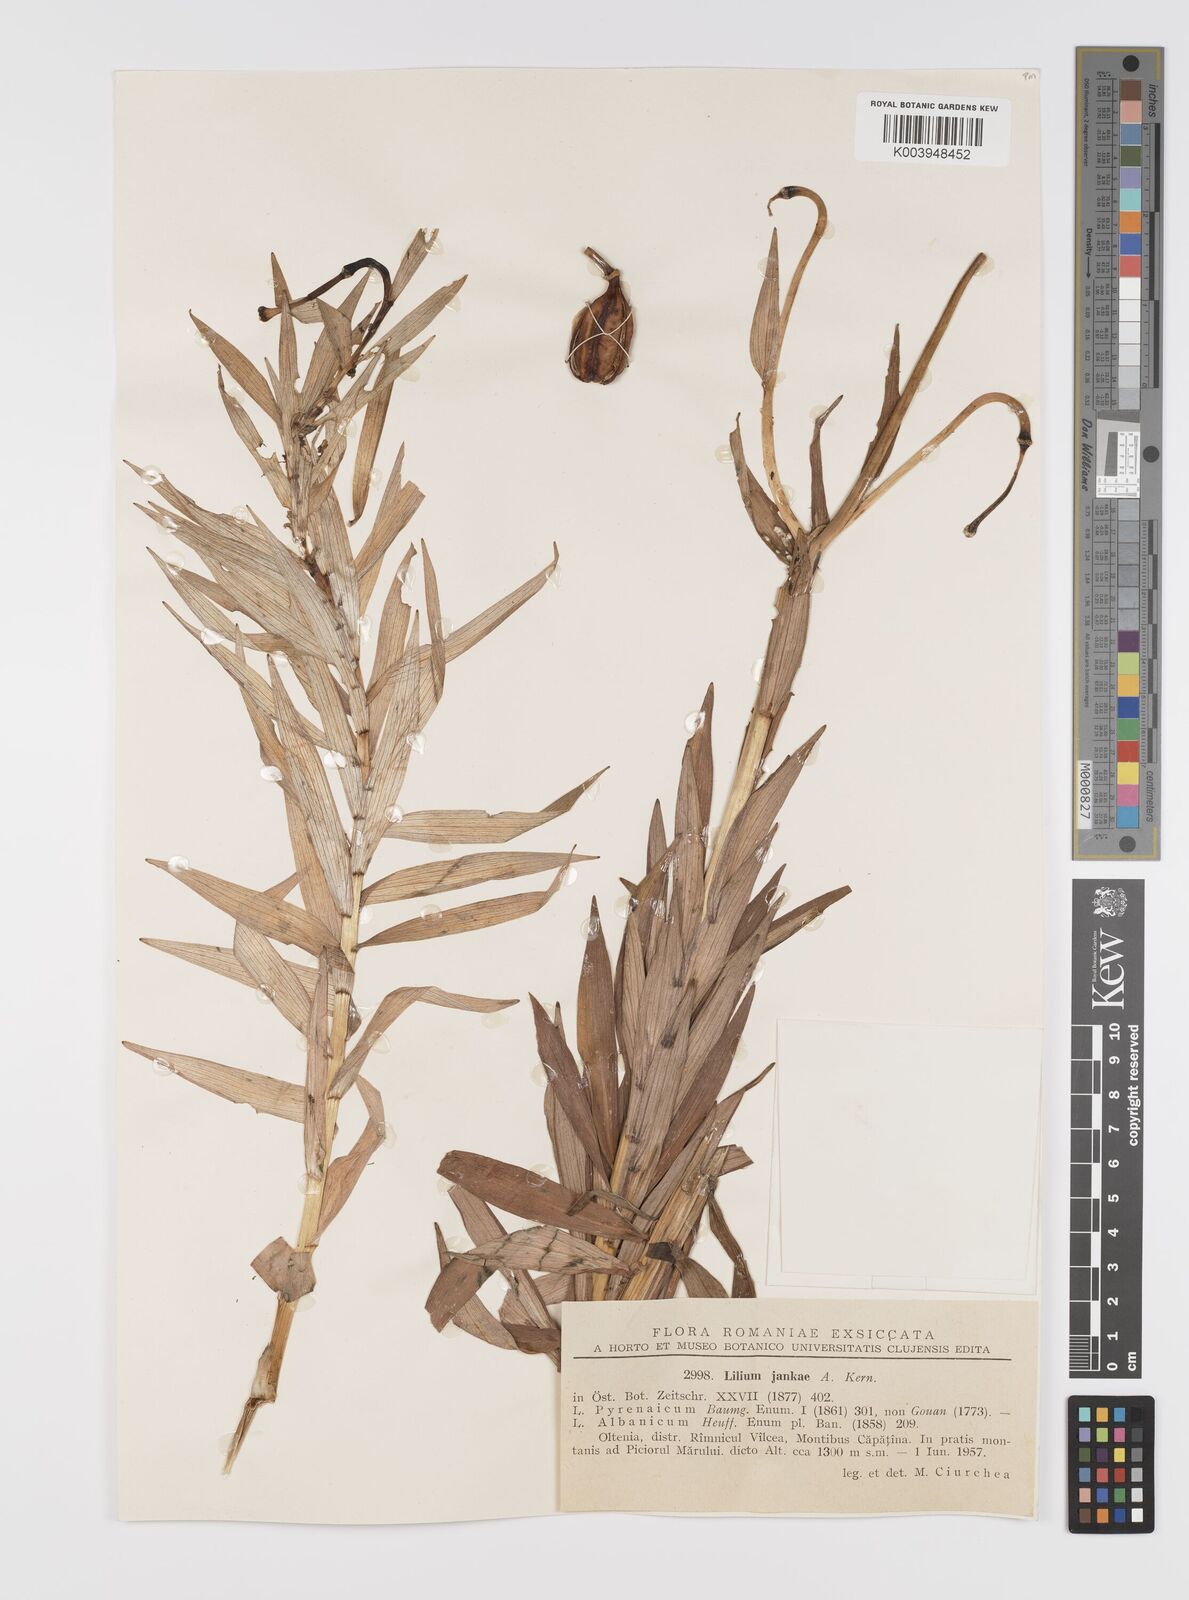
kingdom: Plantae
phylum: Tracheophyta
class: Liliopsida
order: Liliales
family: Liliaceae
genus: Lilium
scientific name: Lilium jankae
